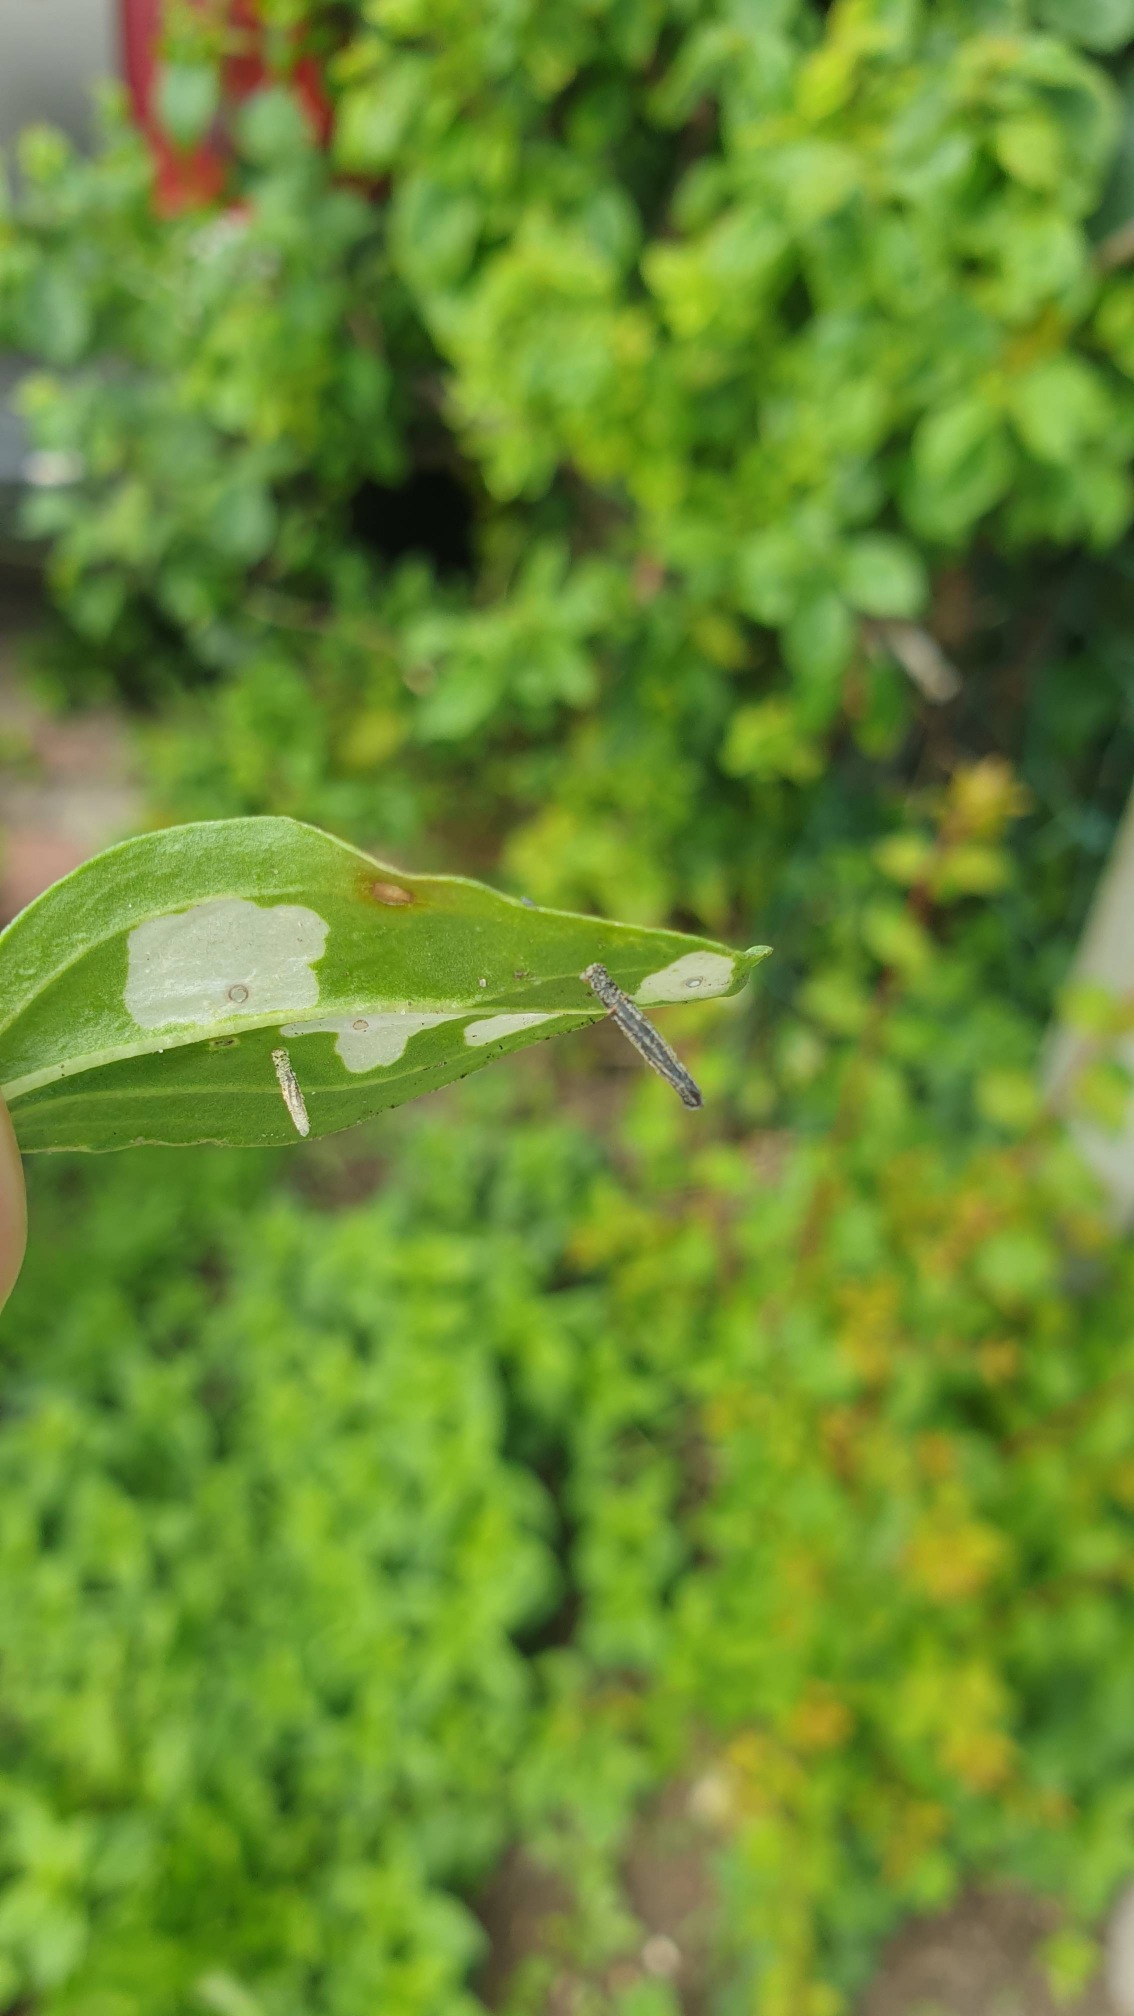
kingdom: Animalia
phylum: Arthropoda
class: Insecta
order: Lepidoptera
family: Coleophoridae
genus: Coleophora
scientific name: Coleophora saponariella
